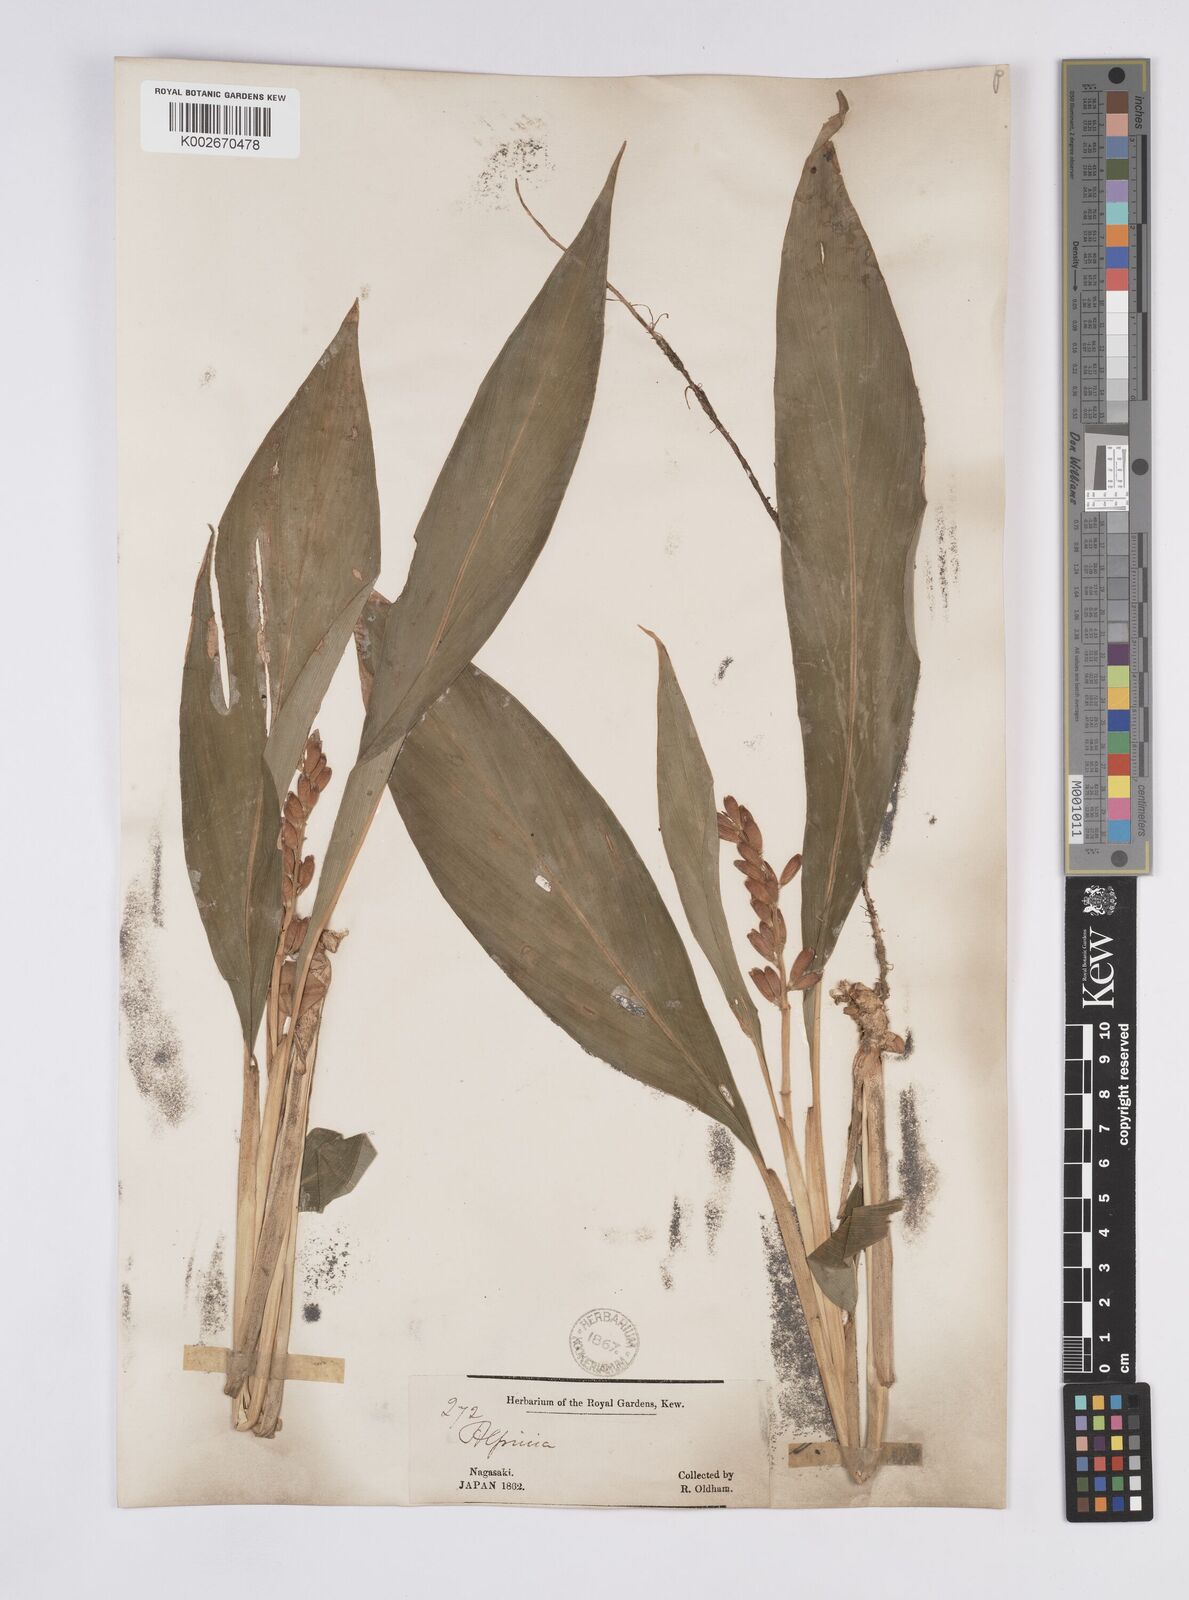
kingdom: Plantae
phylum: Tracheophyta
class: Liliopsida
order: Zingiberales
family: Zingiberaceae
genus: Alpinia
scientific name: Alpinia japonica
